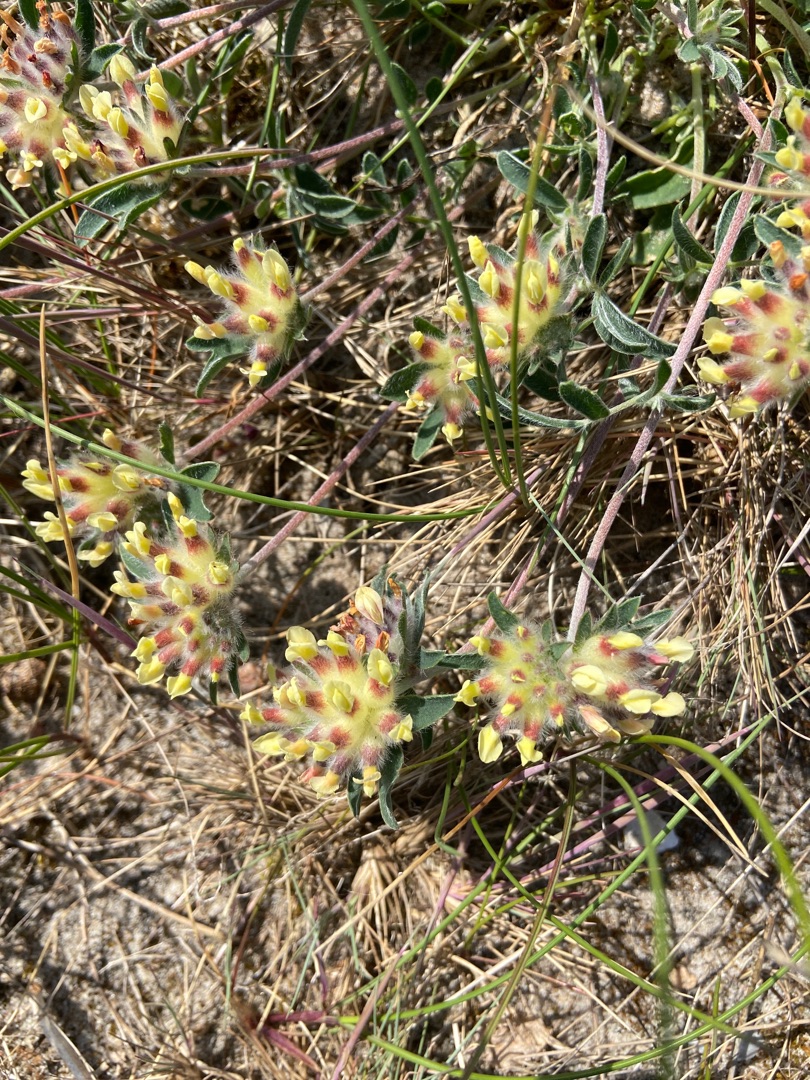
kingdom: Plantae
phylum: Tracheophyta
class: Magnoliopsida
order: Fabales
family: Fabaceae
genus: Anthyllis
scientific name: Anthyllis vulneraria
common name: Rundbælg
